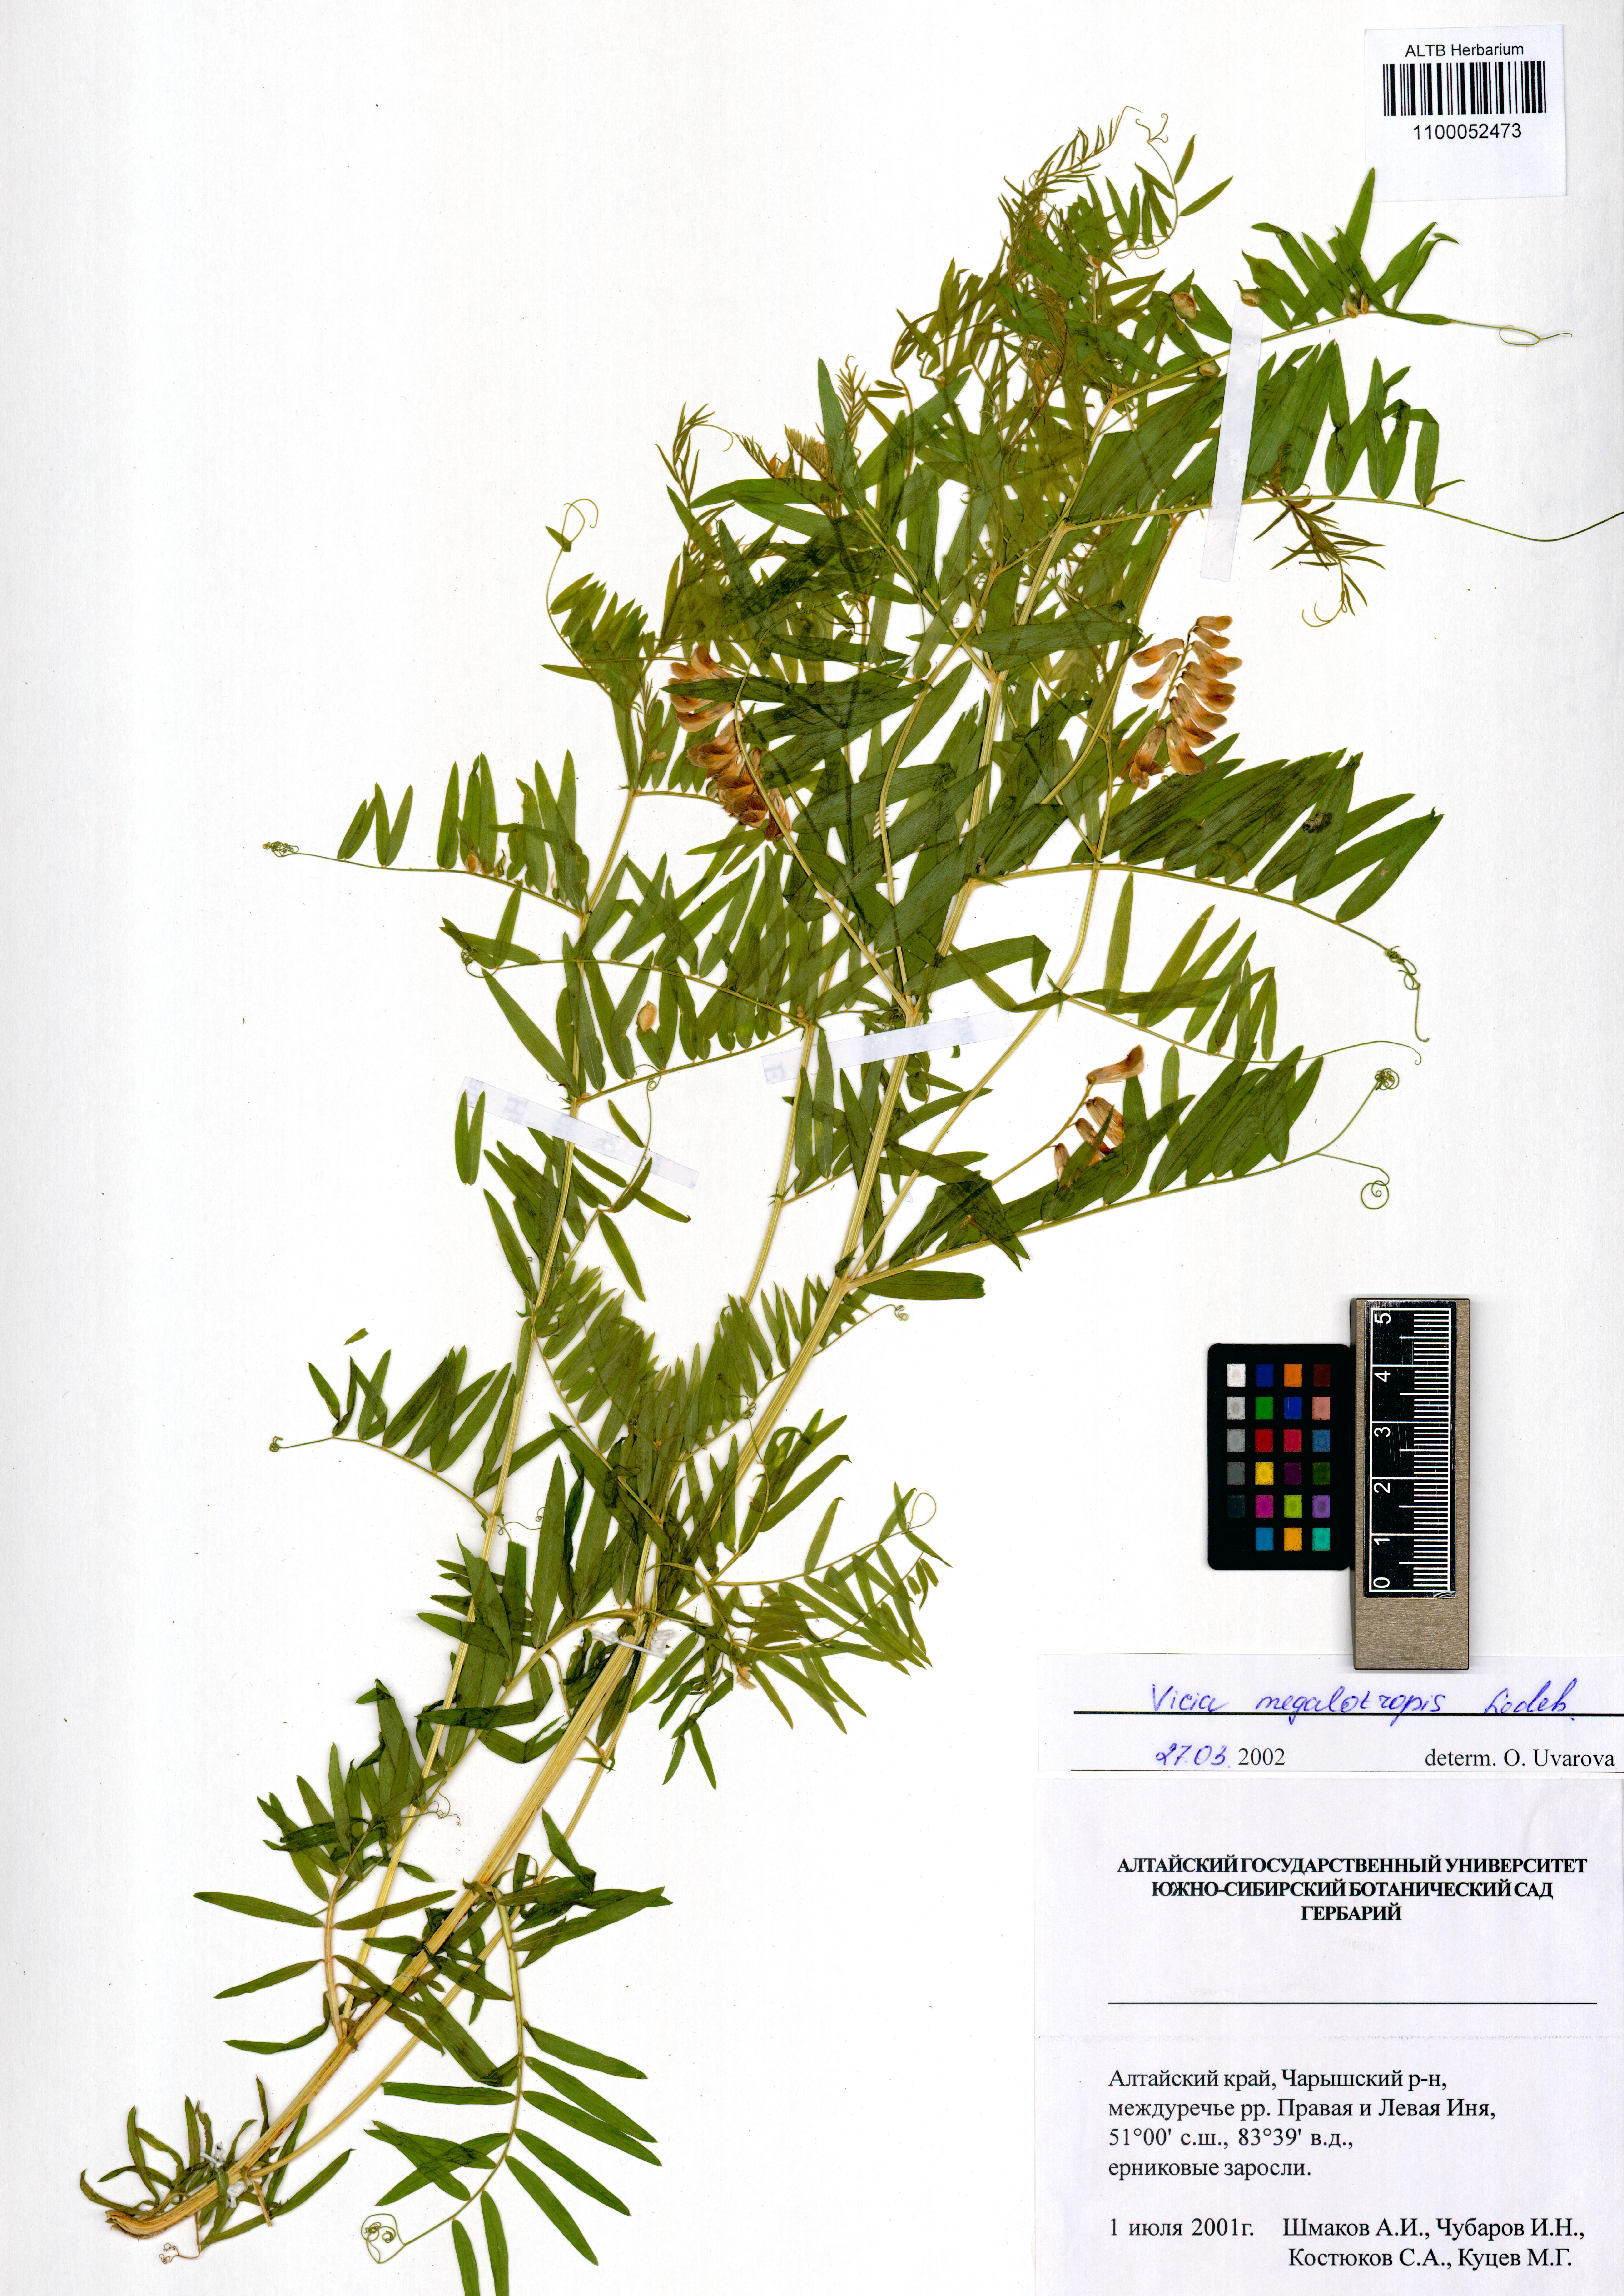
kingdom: Plantae
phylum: Tracheophyta
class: Magnoliopsida
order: Fabales
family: Fabaceae
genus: Vicia
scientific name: Vicia megalotropis
